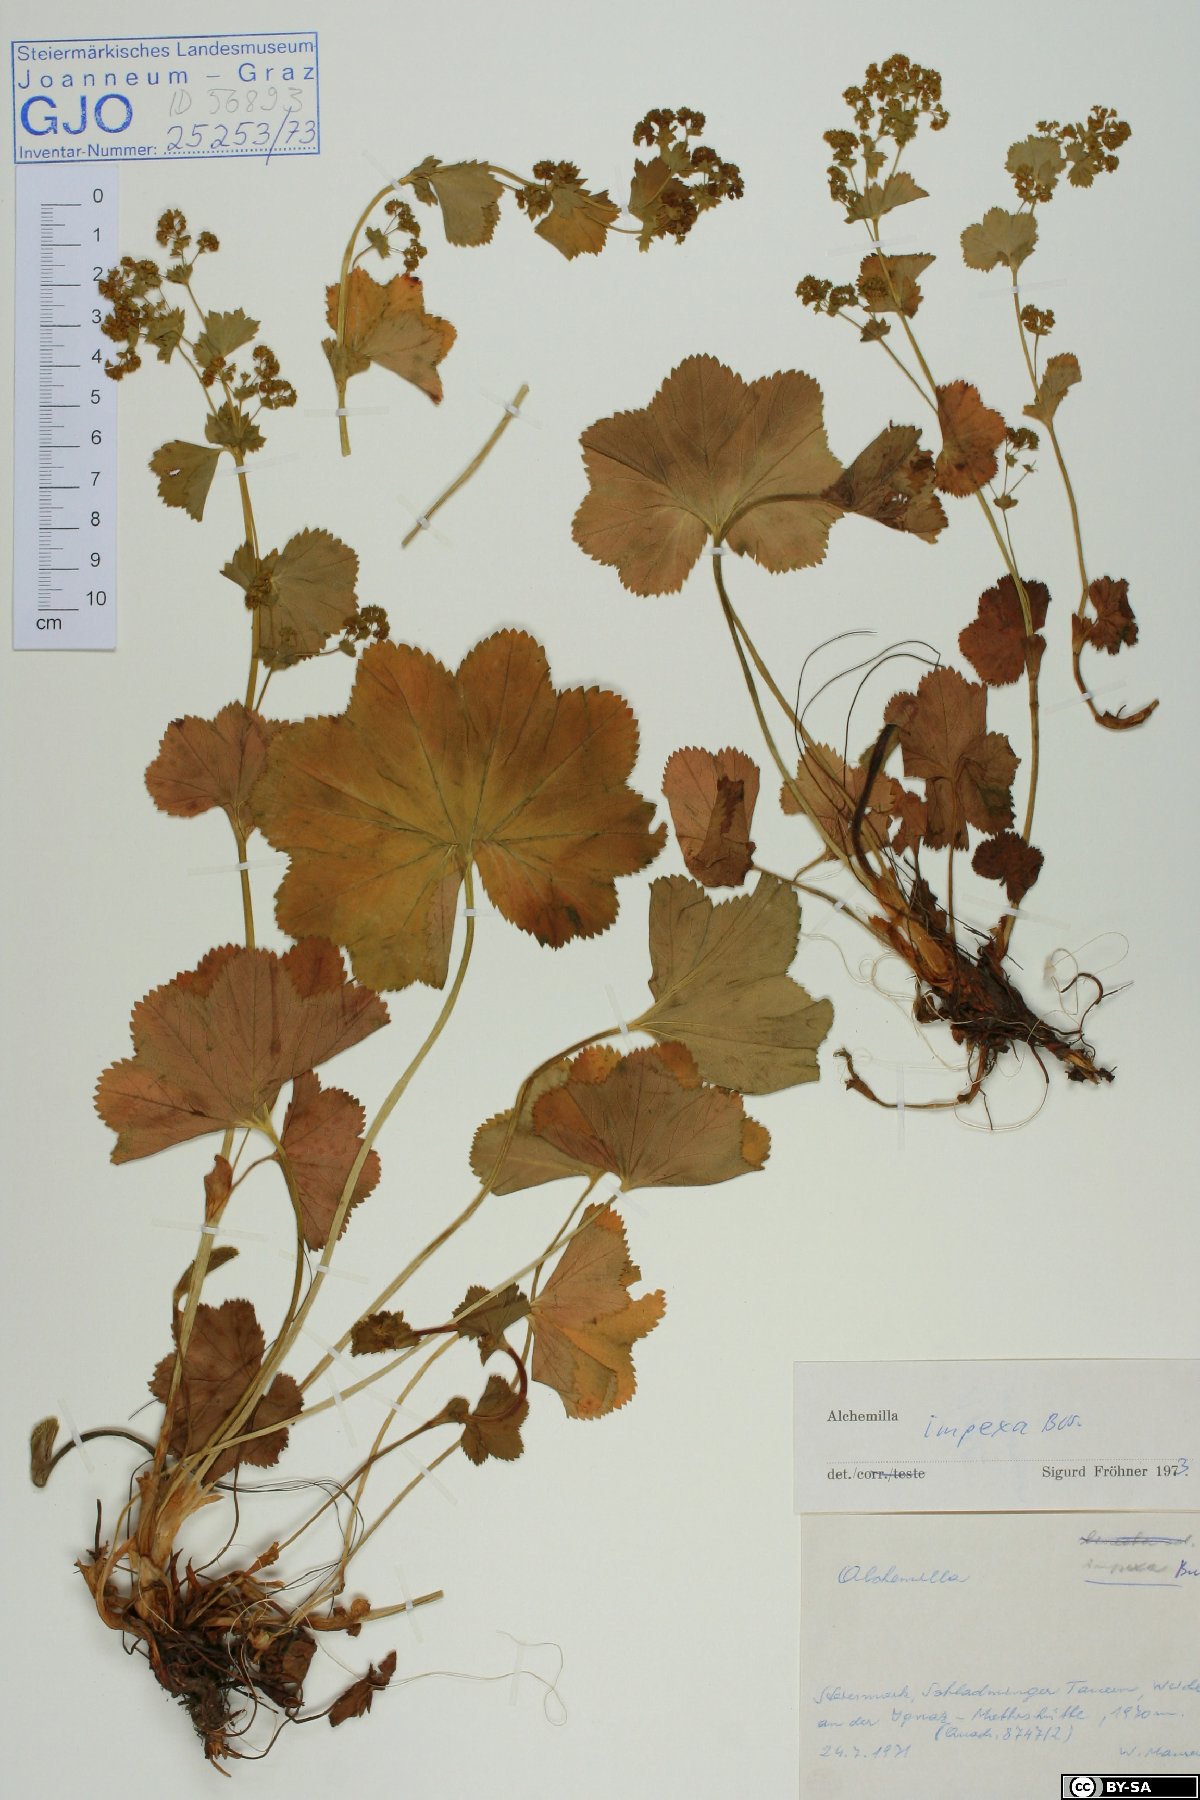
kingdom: Plantae
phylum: Tracheophyta
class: Magnoliopsida
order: Rosales
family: Rosaceae
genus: Alchemilla
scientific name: Alchemilla impexa
